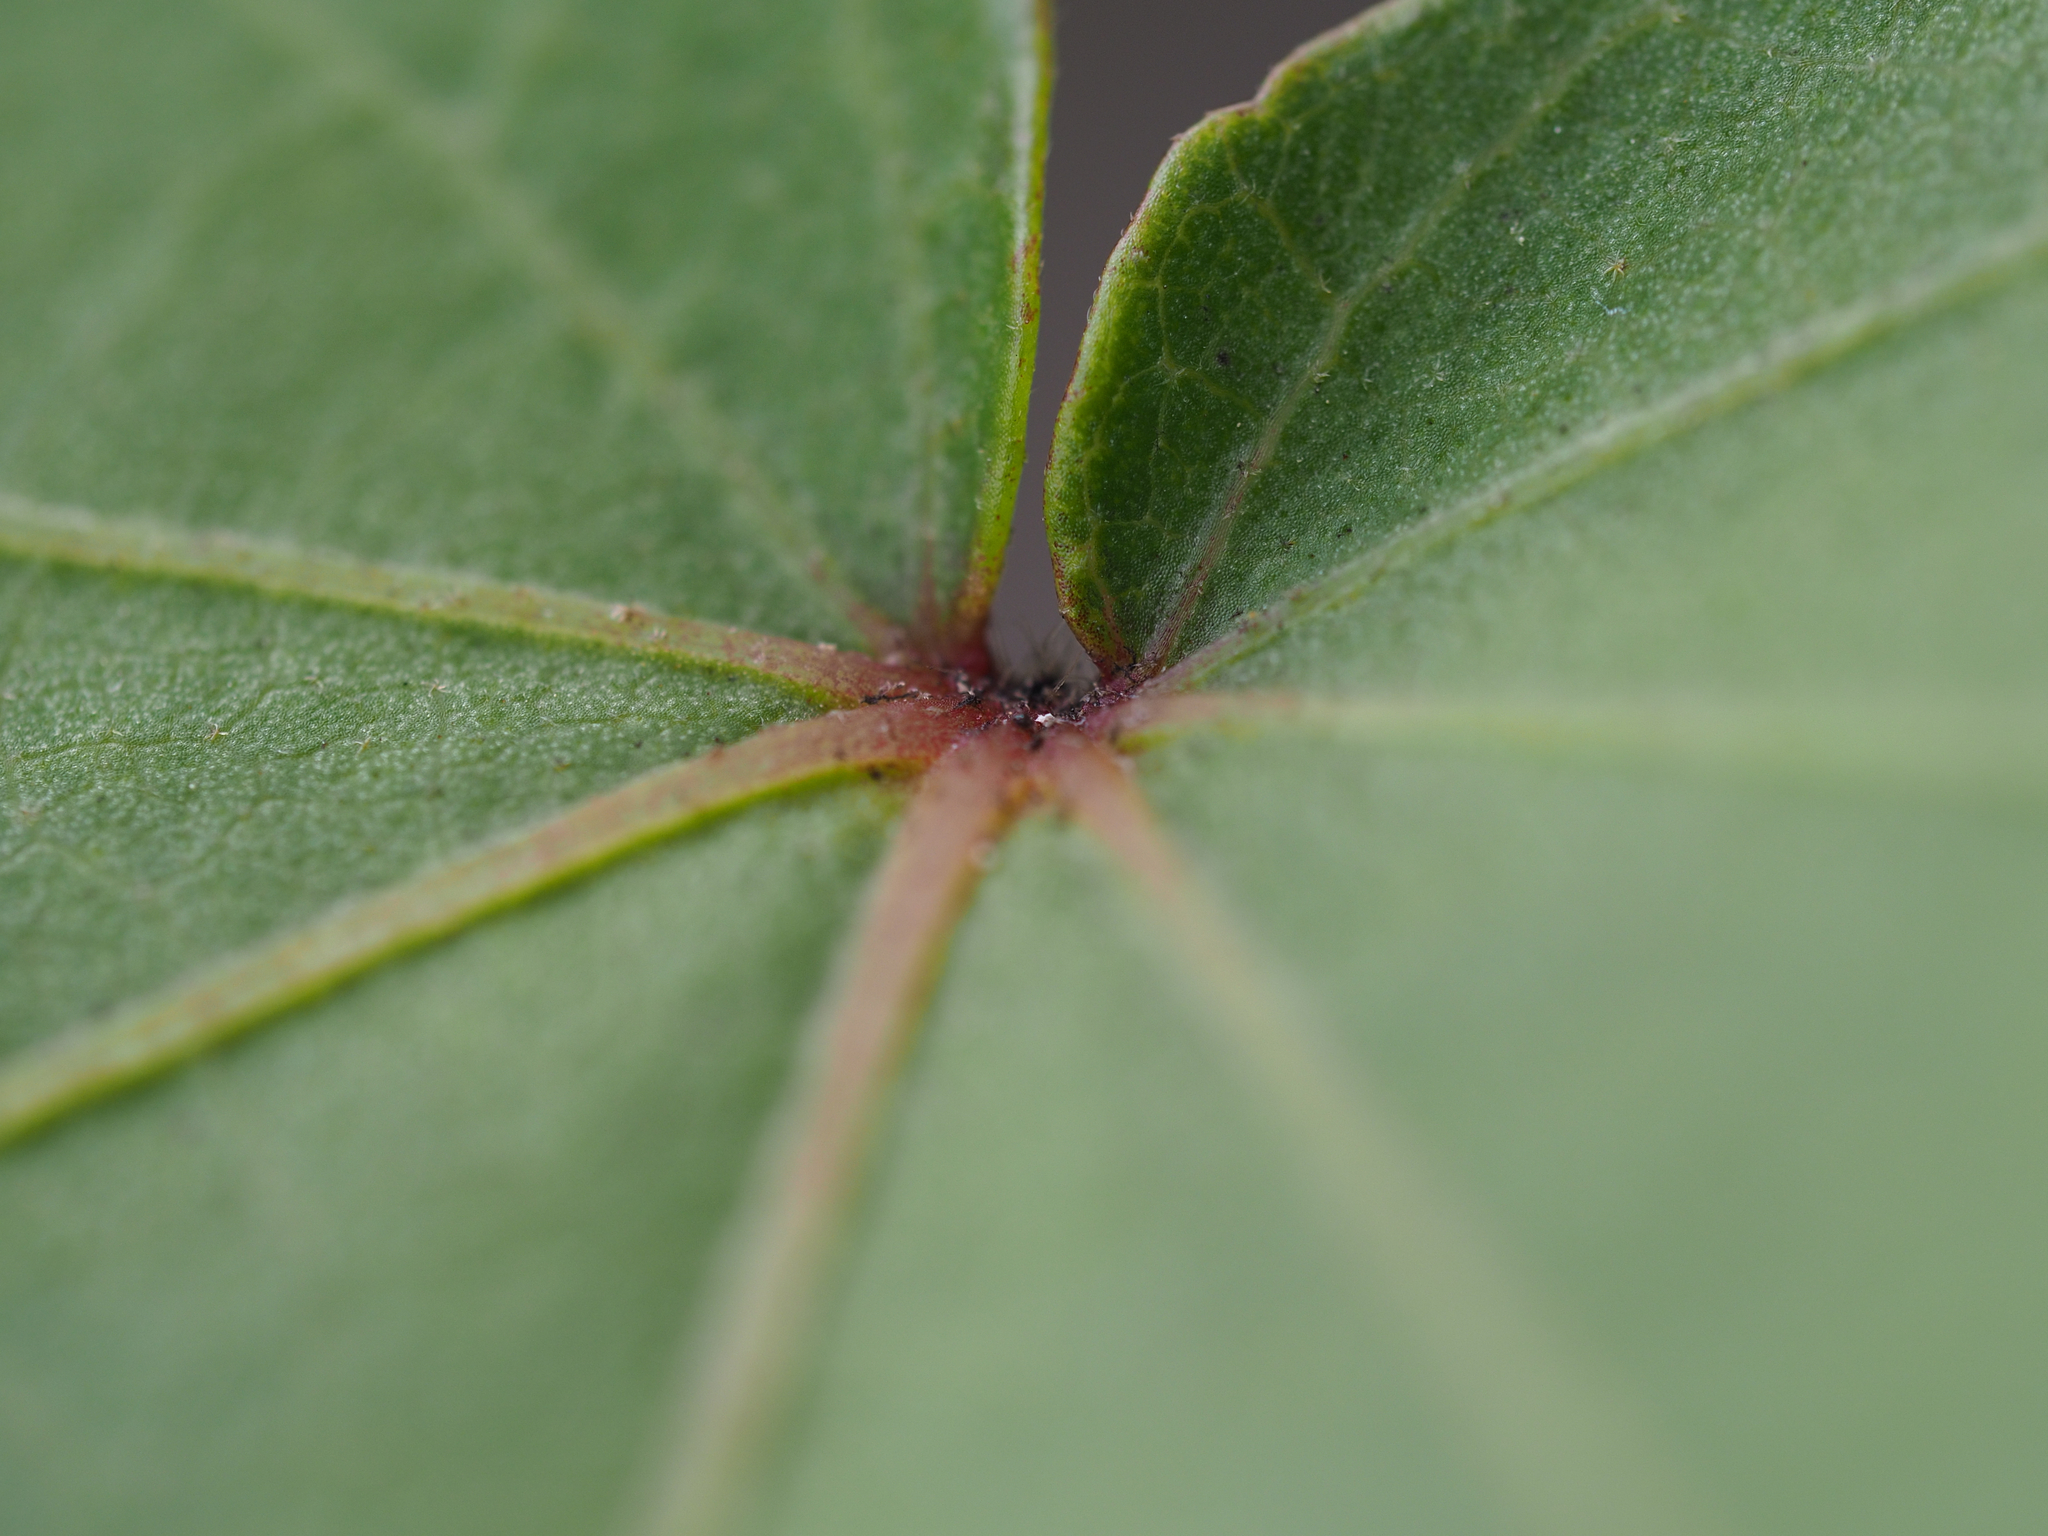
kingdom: Plantae
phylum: Tracheophyta
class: Magnoliopsida
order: Malvales
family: Malvaceae
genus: Hibiscus
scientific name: Hibiscus taiwanensis
